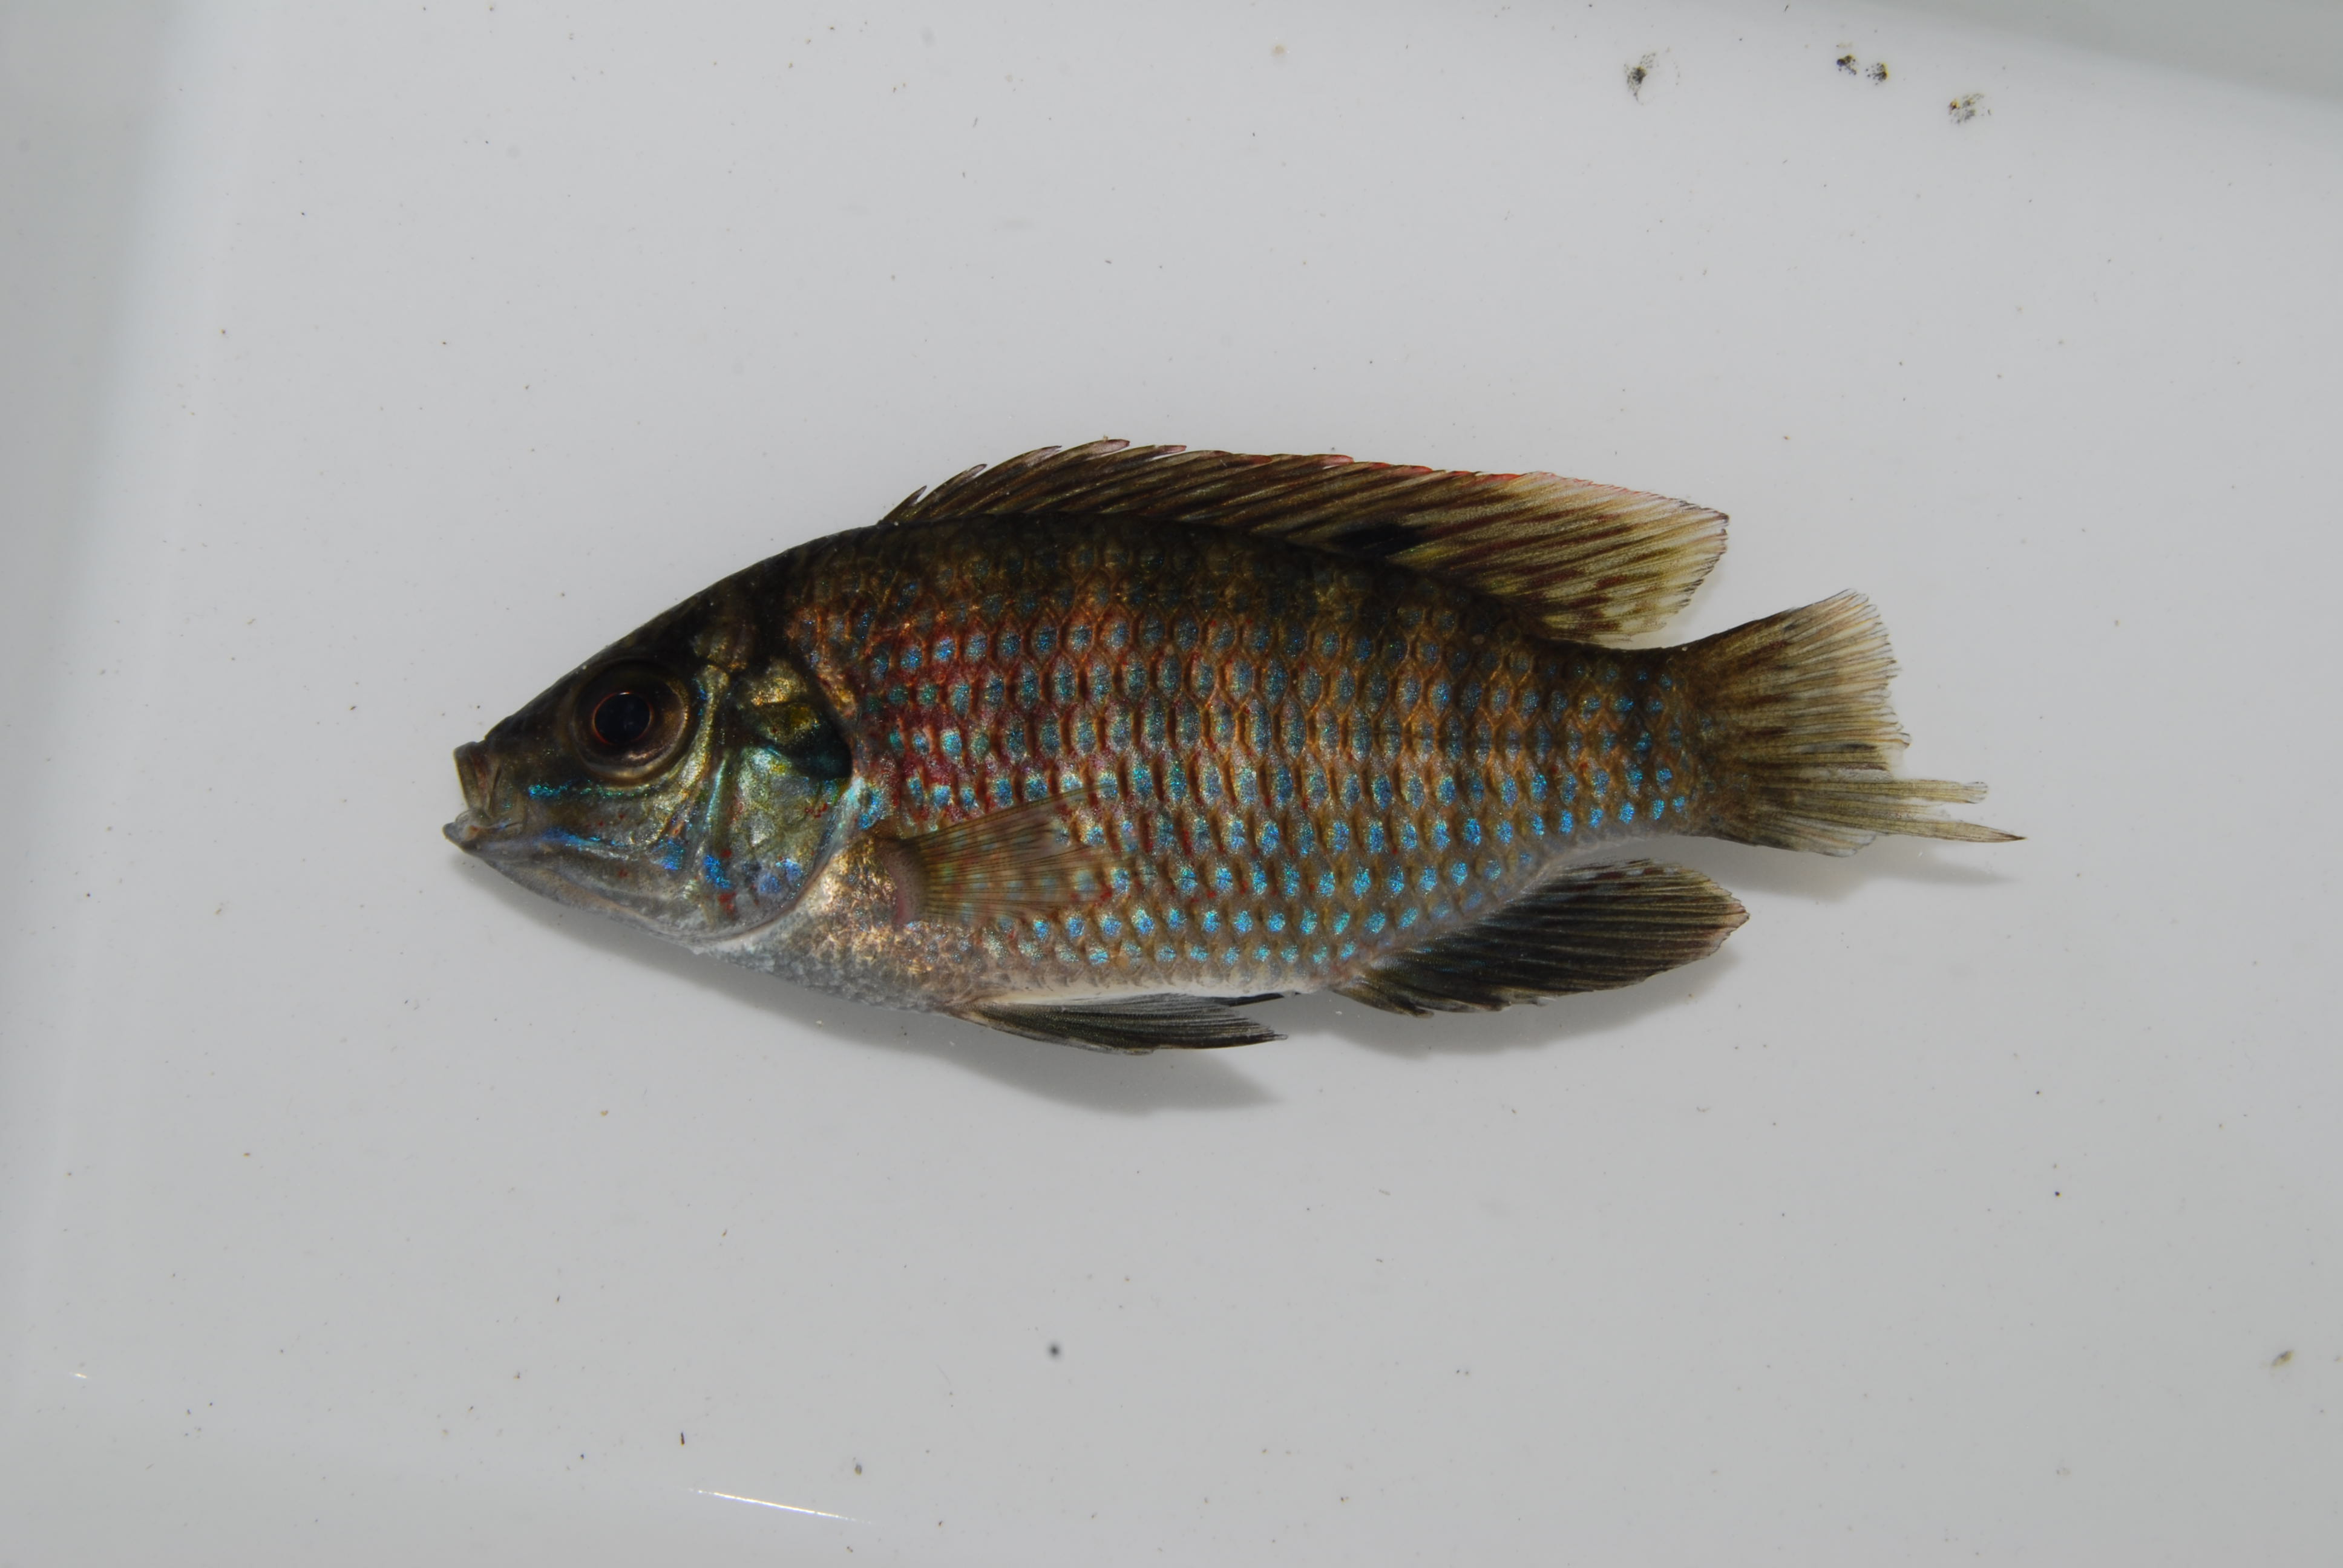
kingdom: Animalia
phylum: Chordata
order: Perciformes
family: Cichlidae
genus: Tilapia
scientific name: Tilapia sparrmanii
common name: Banded tilapia
